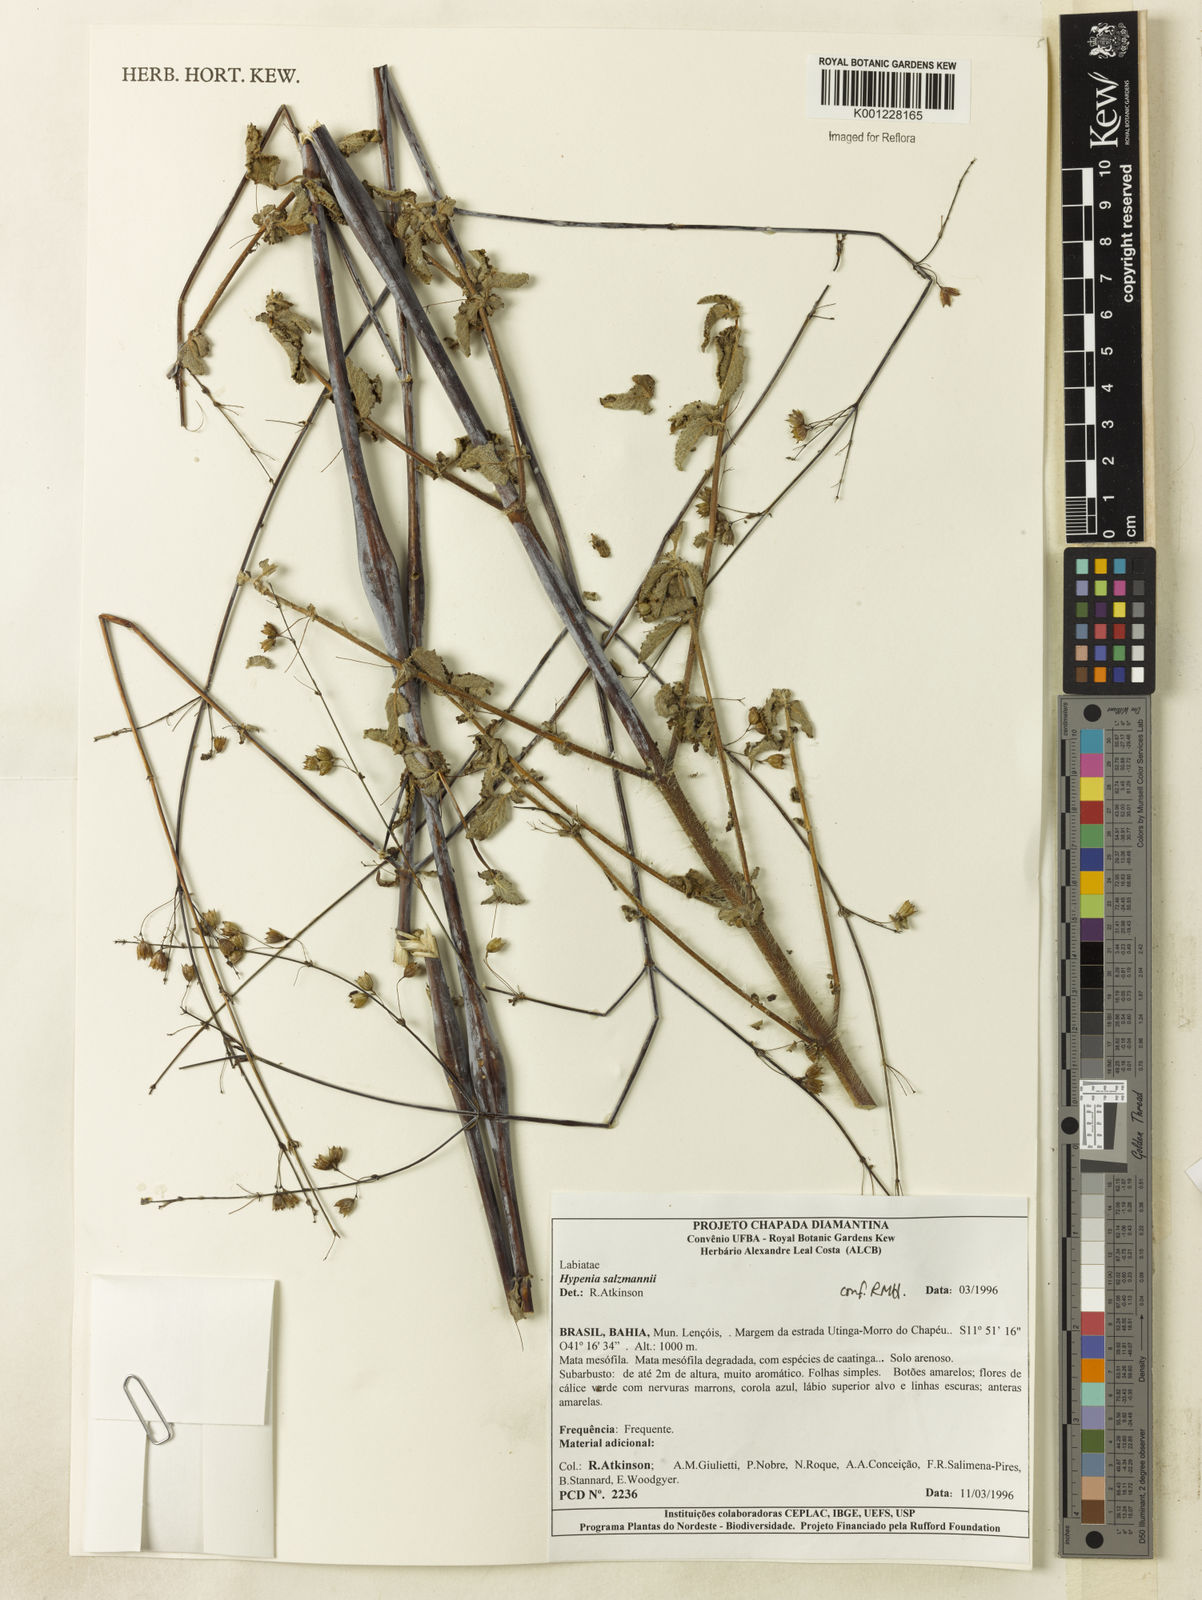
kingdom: Plantae
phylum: Tracheophyta
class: Magnoliopsida
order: Lamiales
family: Lamiaceae
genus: Hypenia
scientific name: Hypenia salzmannii
